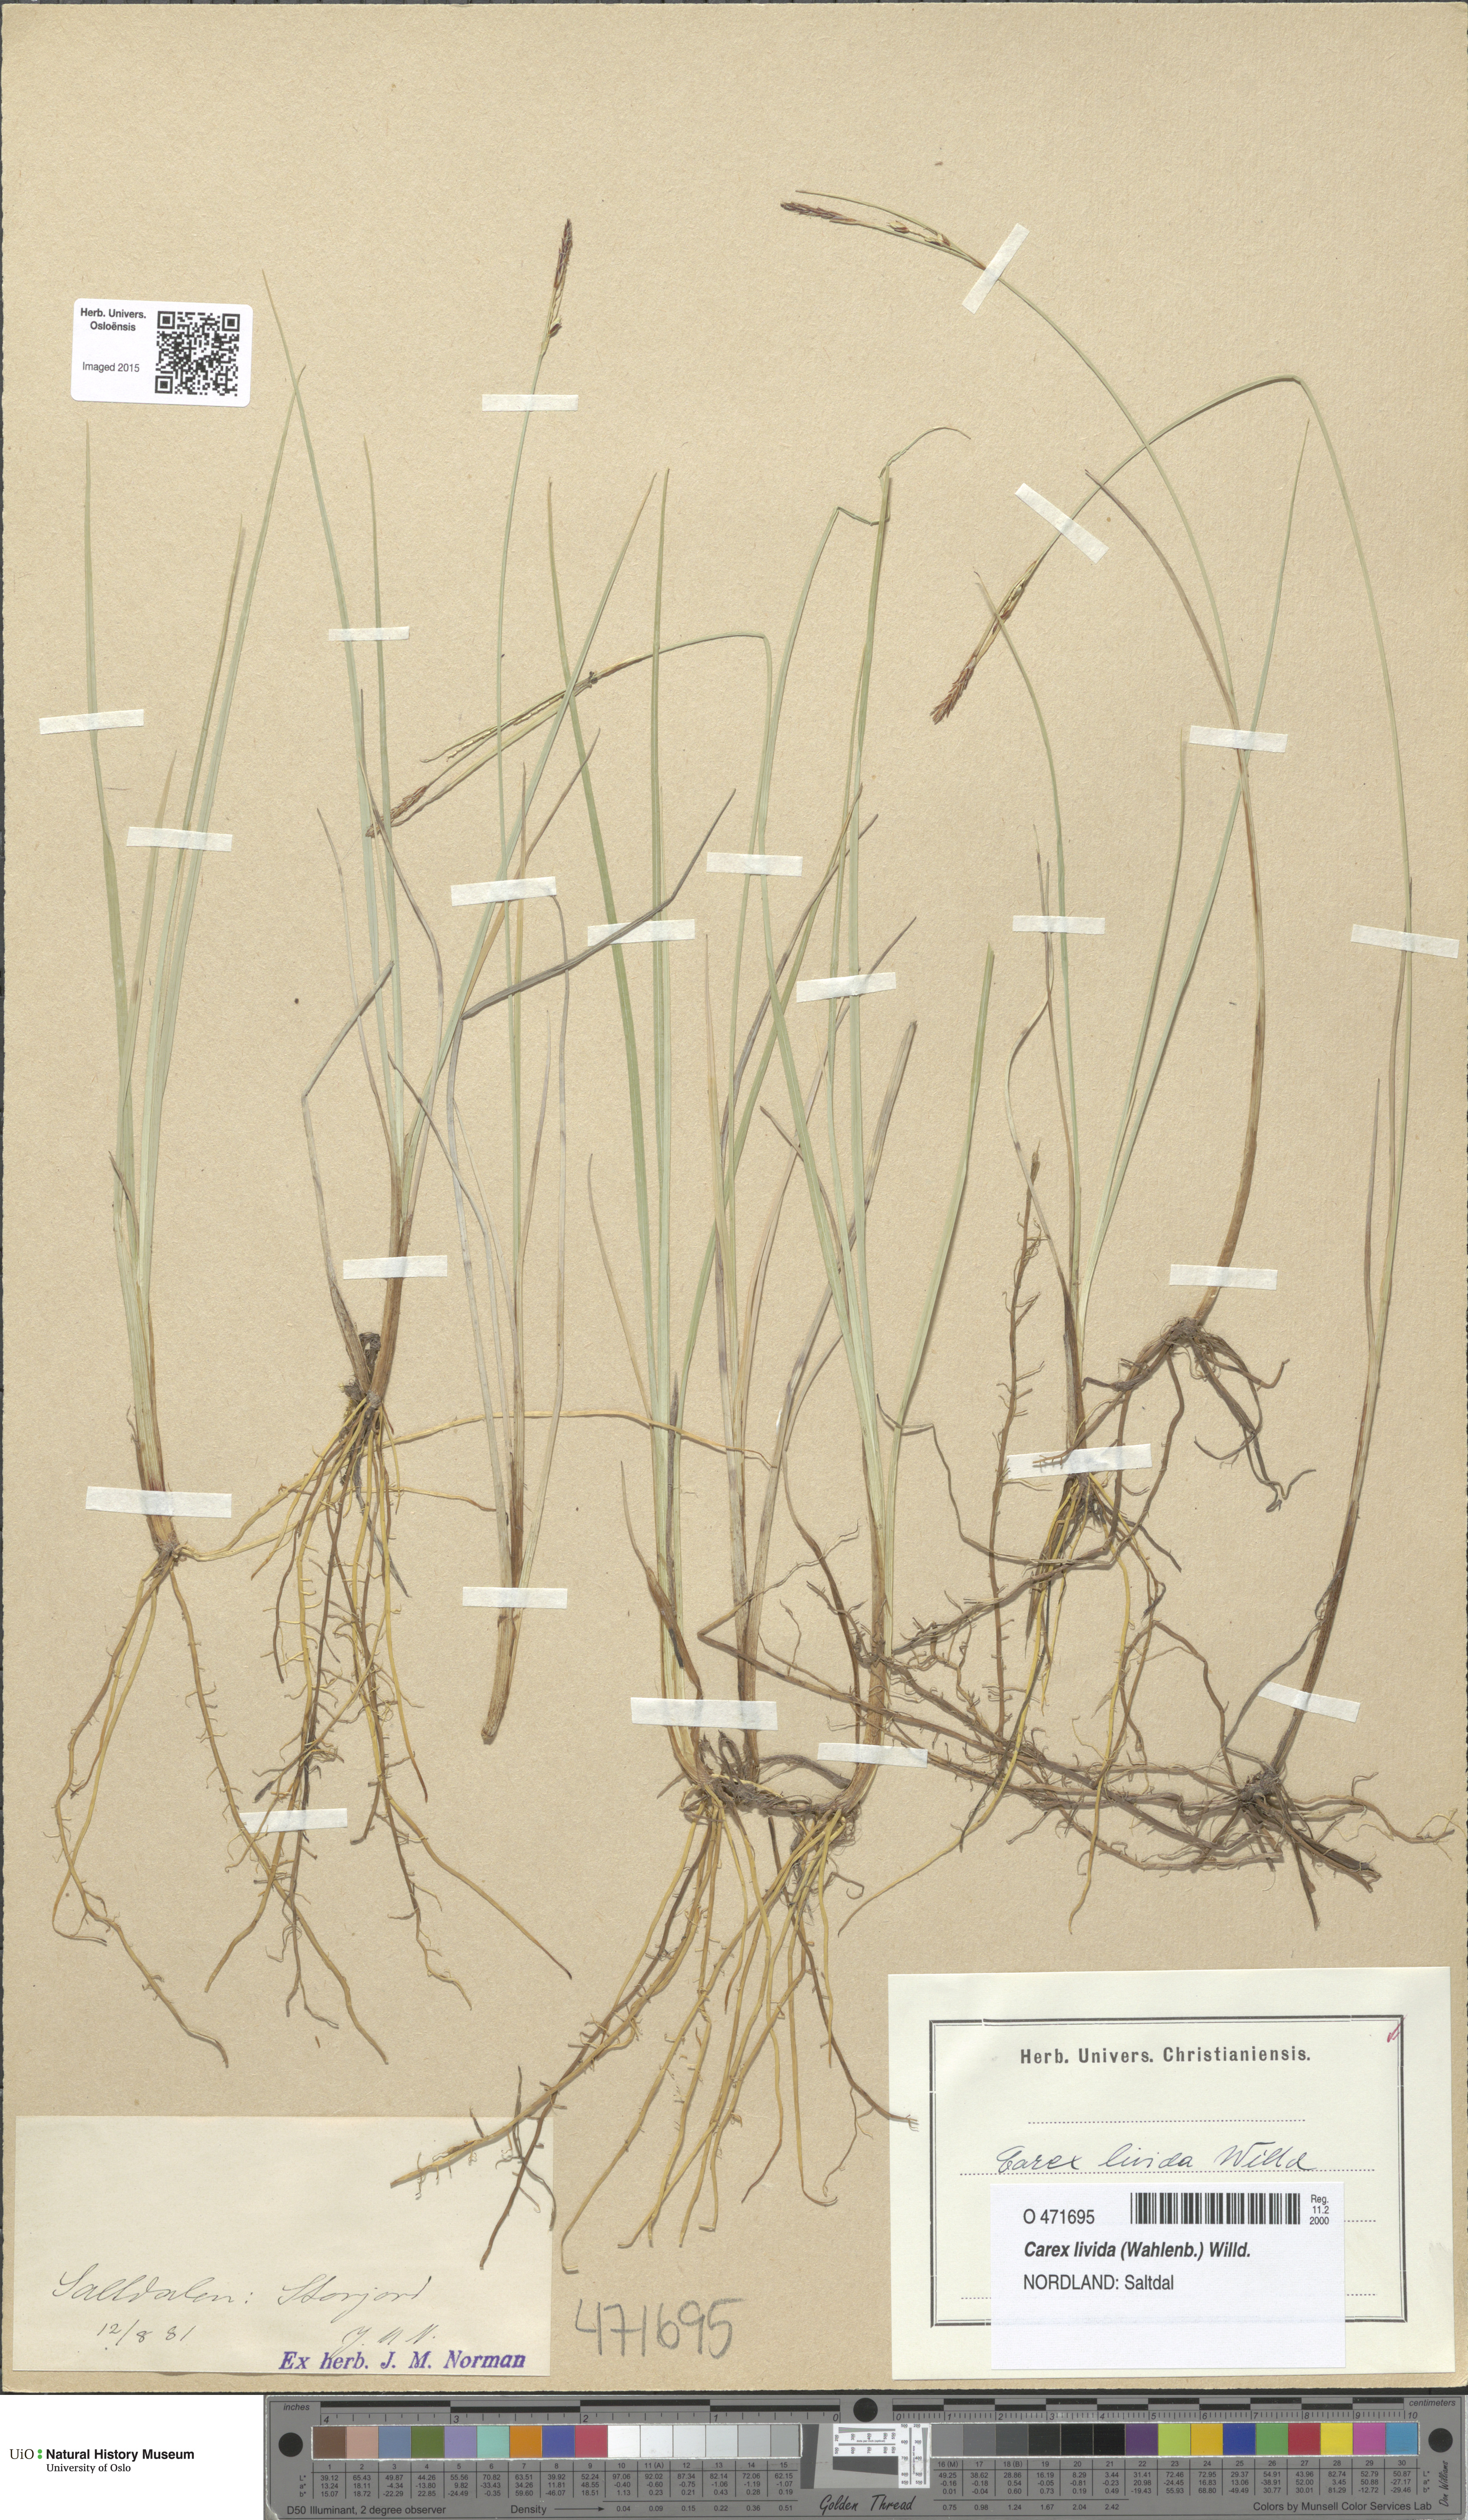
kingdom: Plantae
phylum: Tracheophyta
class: Liliopsida
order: Poales
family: Cyperaceae
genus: Carex
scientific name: Carex livida
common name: Livid sedge
